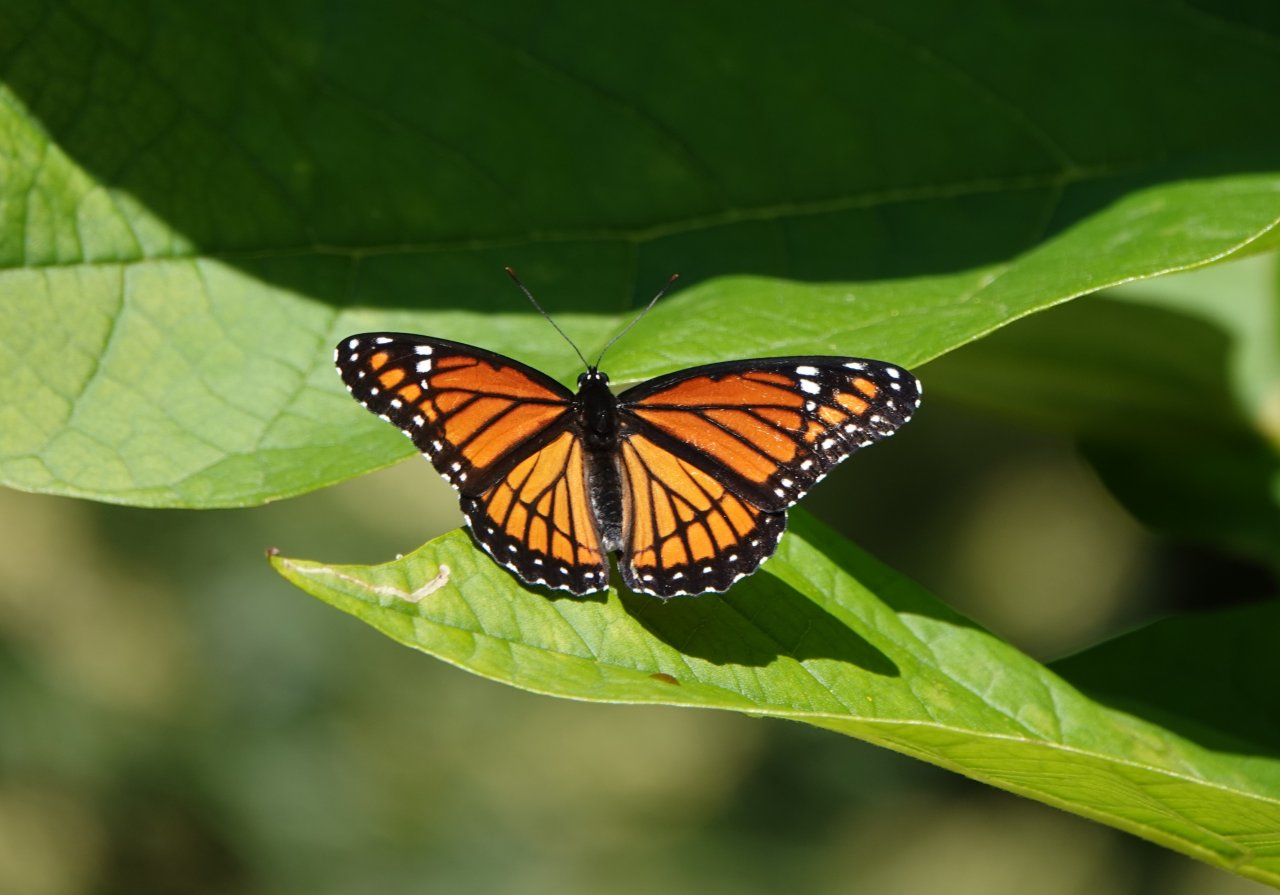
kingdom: Animalia
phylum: Arthropoda
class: Insecta
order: Lepidoptera
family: Nymphalidae
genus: Limenitis
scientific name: Limenitis archippus
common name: Viceroy
